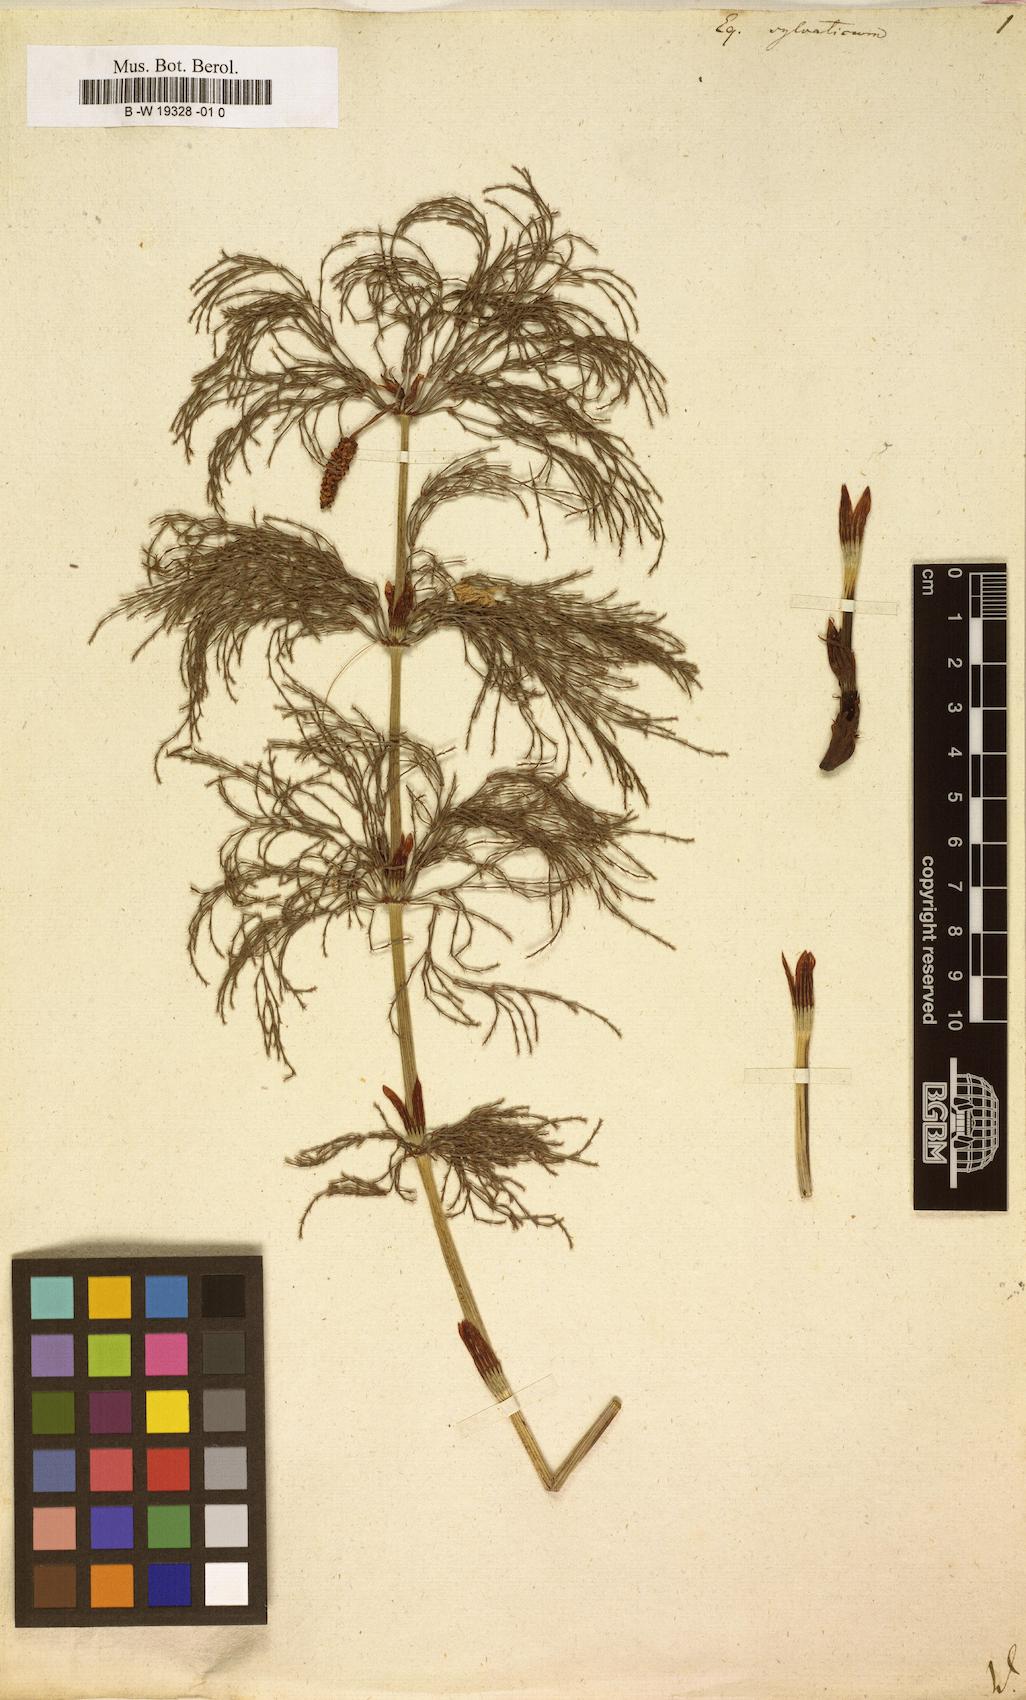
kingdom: Plantae
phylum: Tracheophyta
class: Polypodiopsida
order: Equisetales
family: Equisetaceae
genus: Equisetum
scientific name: Equisetum sylvaticum
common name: Wood horsetail
